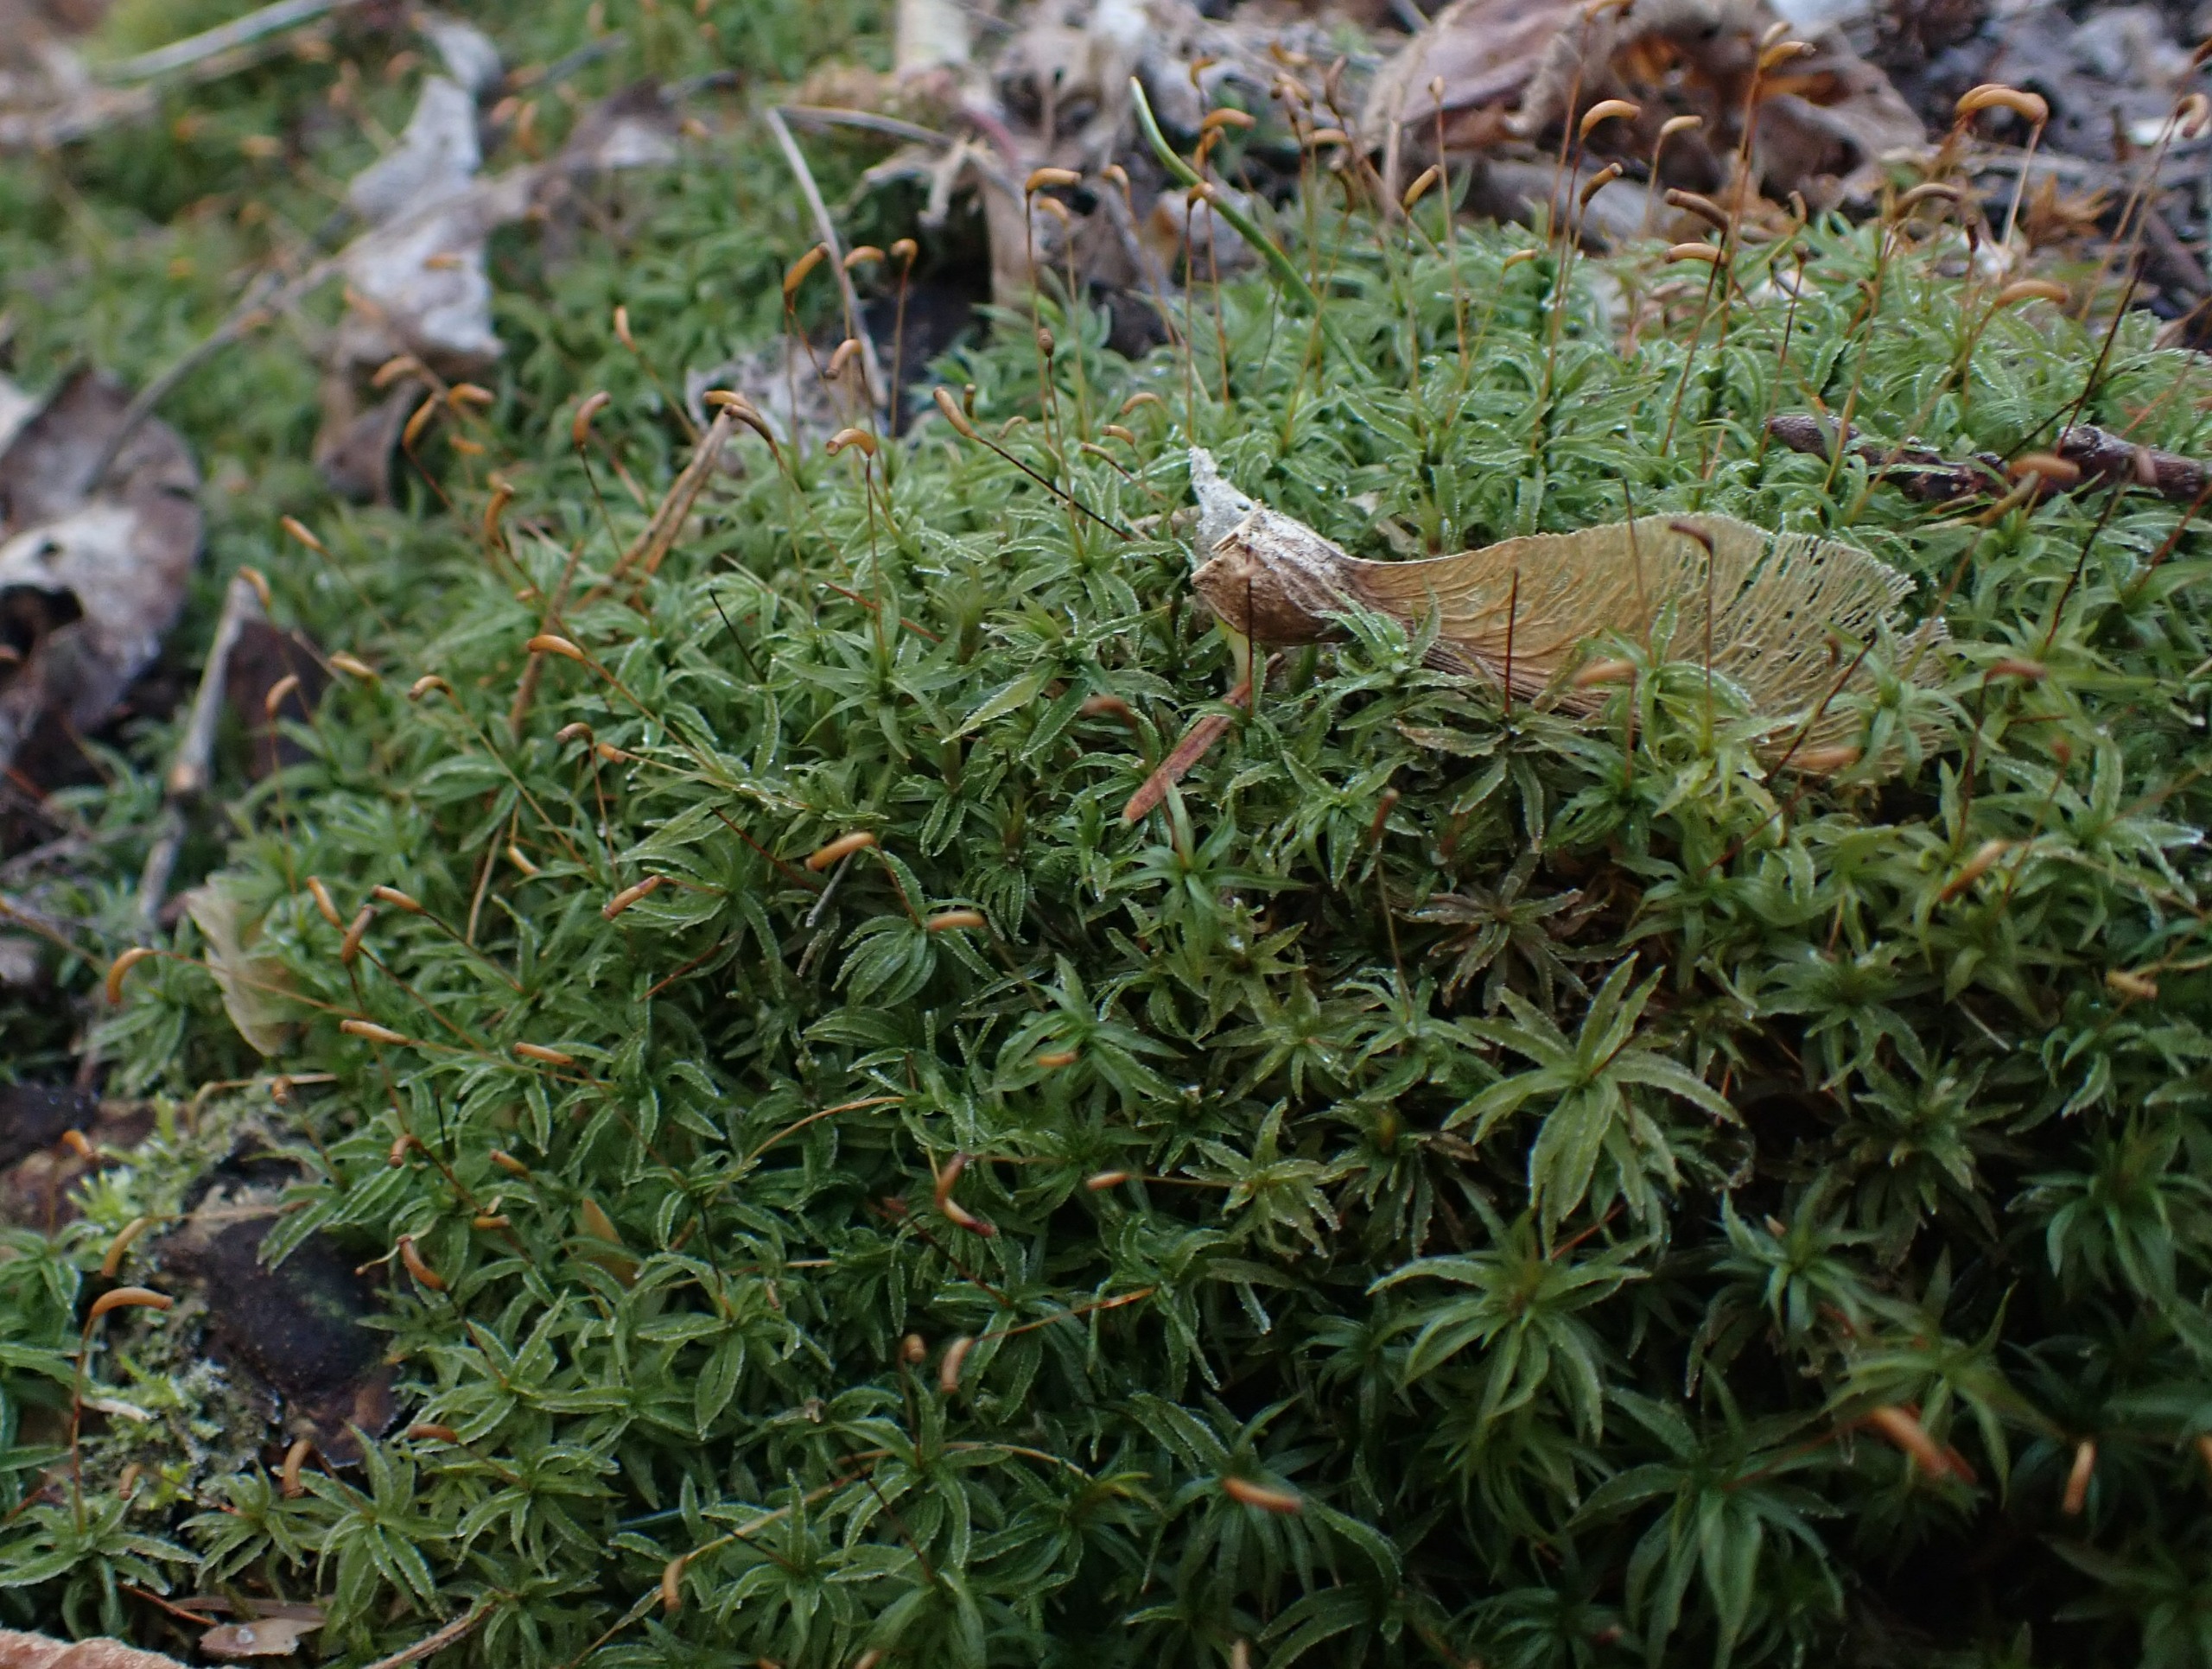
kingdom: Plantae
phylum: Bryophyta
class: Polytrichopsida
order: Polytrichales
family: Polytrichaceae
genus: Atrichum
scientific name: Atrichum undulatum
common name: Bølget katrinemos
